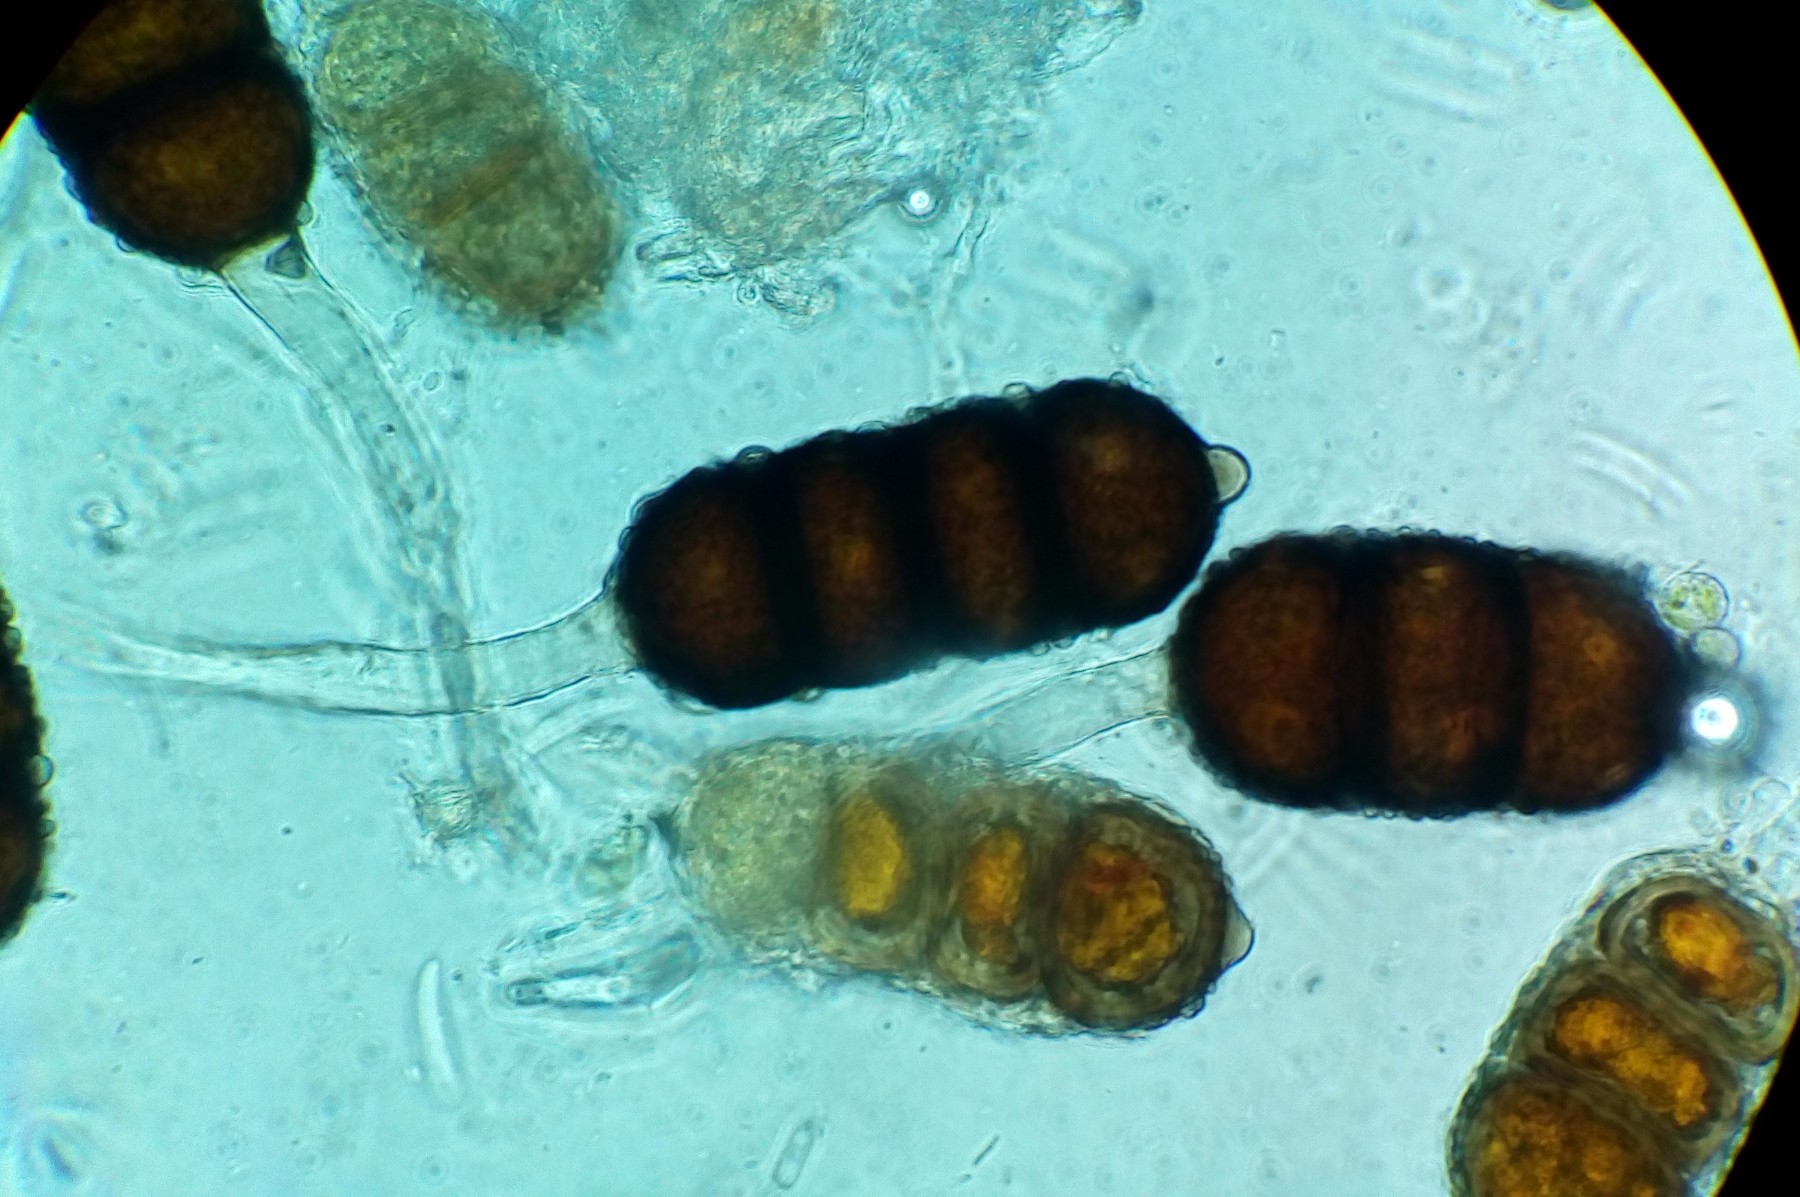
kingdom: Fungi
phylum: Basidiomycota
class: Pucciniomycetes
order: Pucciniales
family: Phragmidiaceae
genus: Phragmidium
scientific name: Phragmidium violaceum
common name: violet flercellerust
